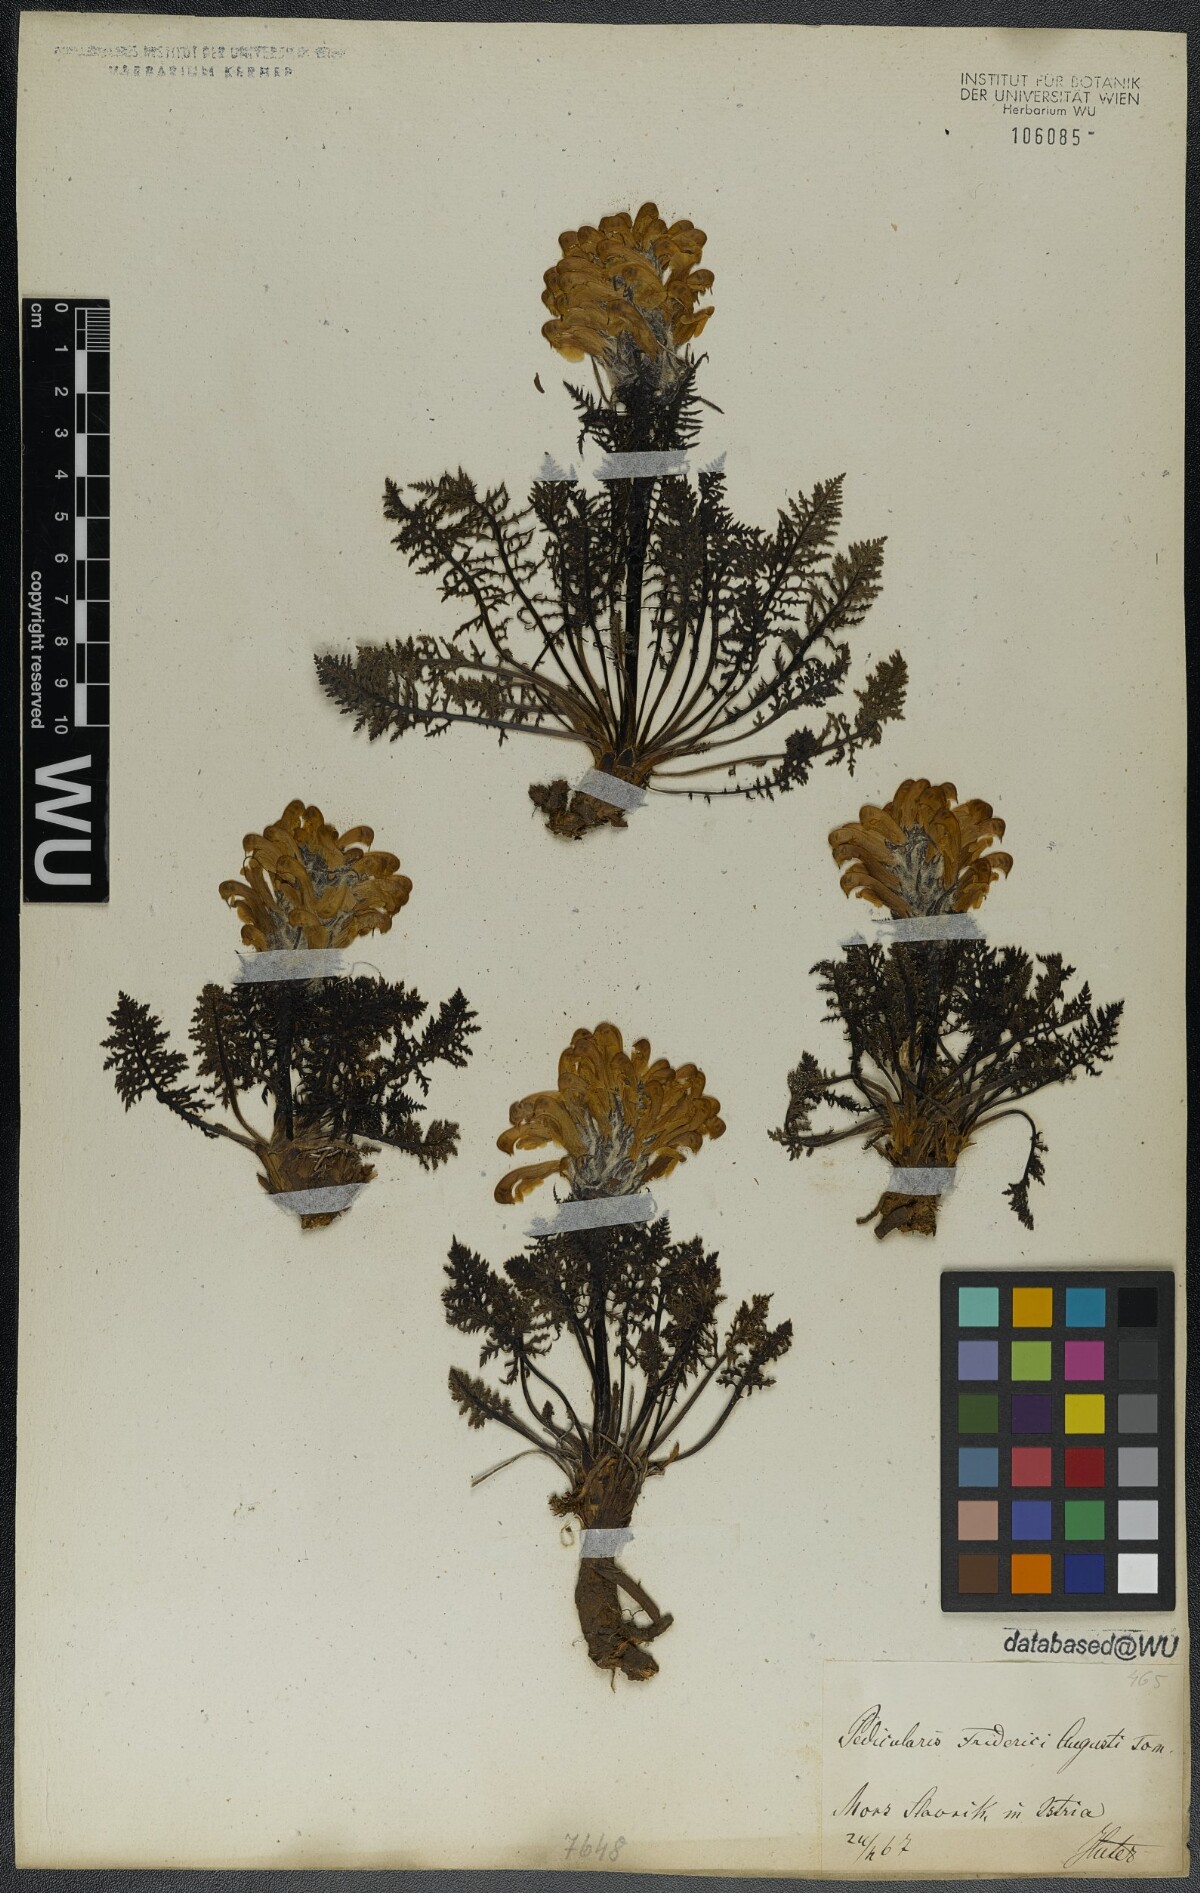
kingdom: Plantae
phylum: Tracheophyta
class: Magnoliopsida
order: Lamiales
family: Orobanchaceae
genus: Pedicularis
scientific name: Pedicularis friderici-augusti
